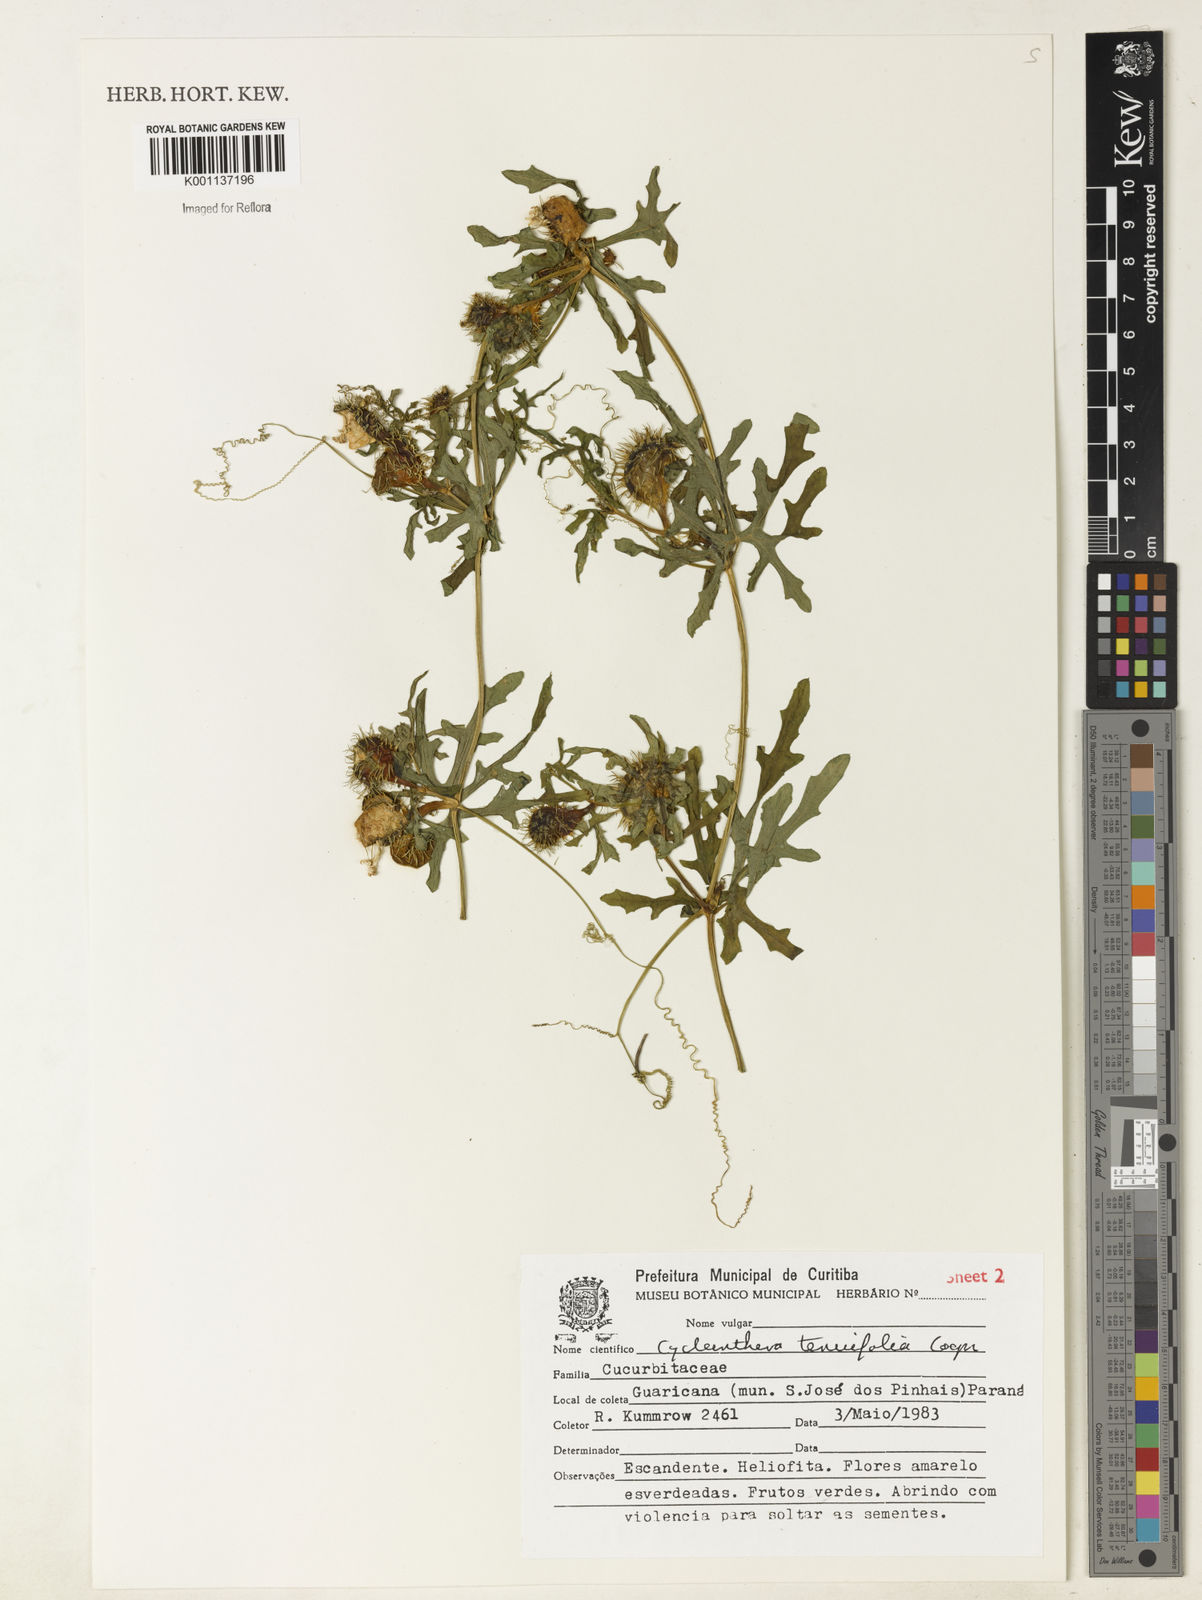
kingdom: Plantae
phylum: Tracheophyta
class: Magnoliopsida
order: Cucurbitales
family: Cucurbitaceae
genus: Cyclanthera
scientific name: Cyclanthera tenuifolia
